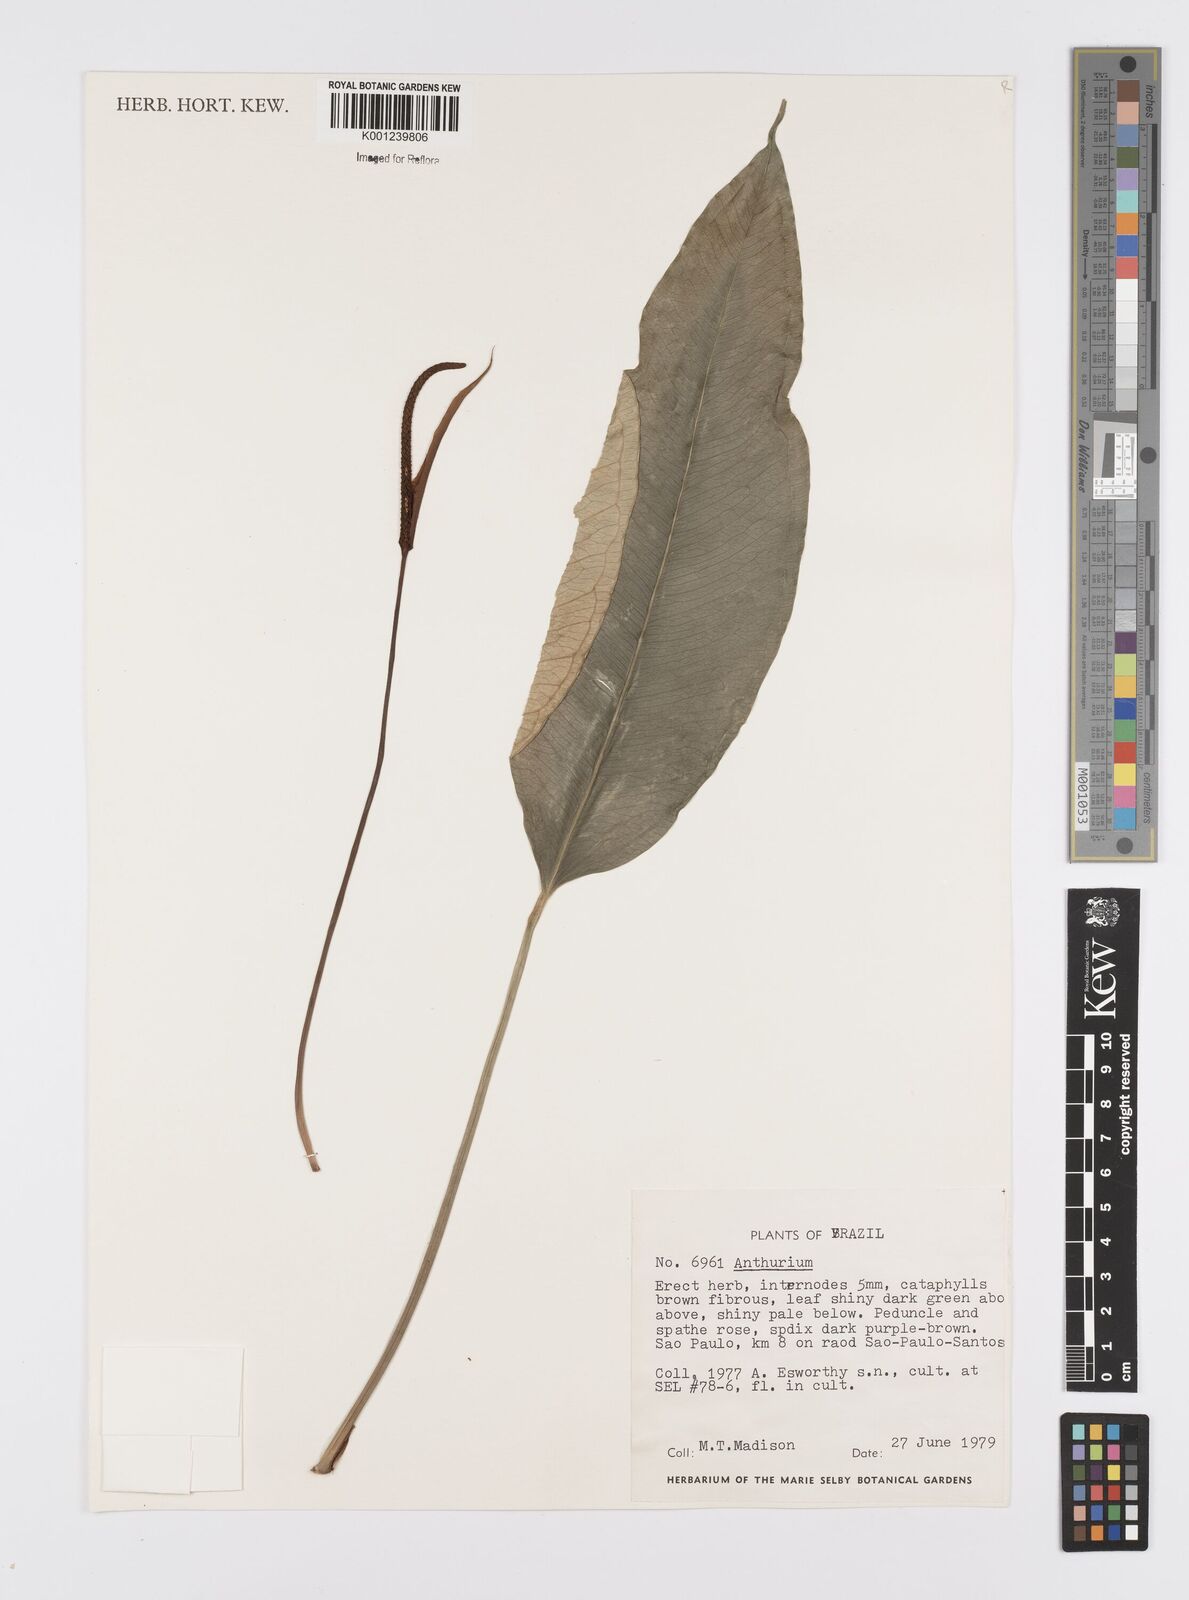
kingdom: Plantae
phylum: Tracheophyta
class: Liliopsida
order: Alismatales
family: Araceae
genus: Anthurium
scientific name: Anthurium
